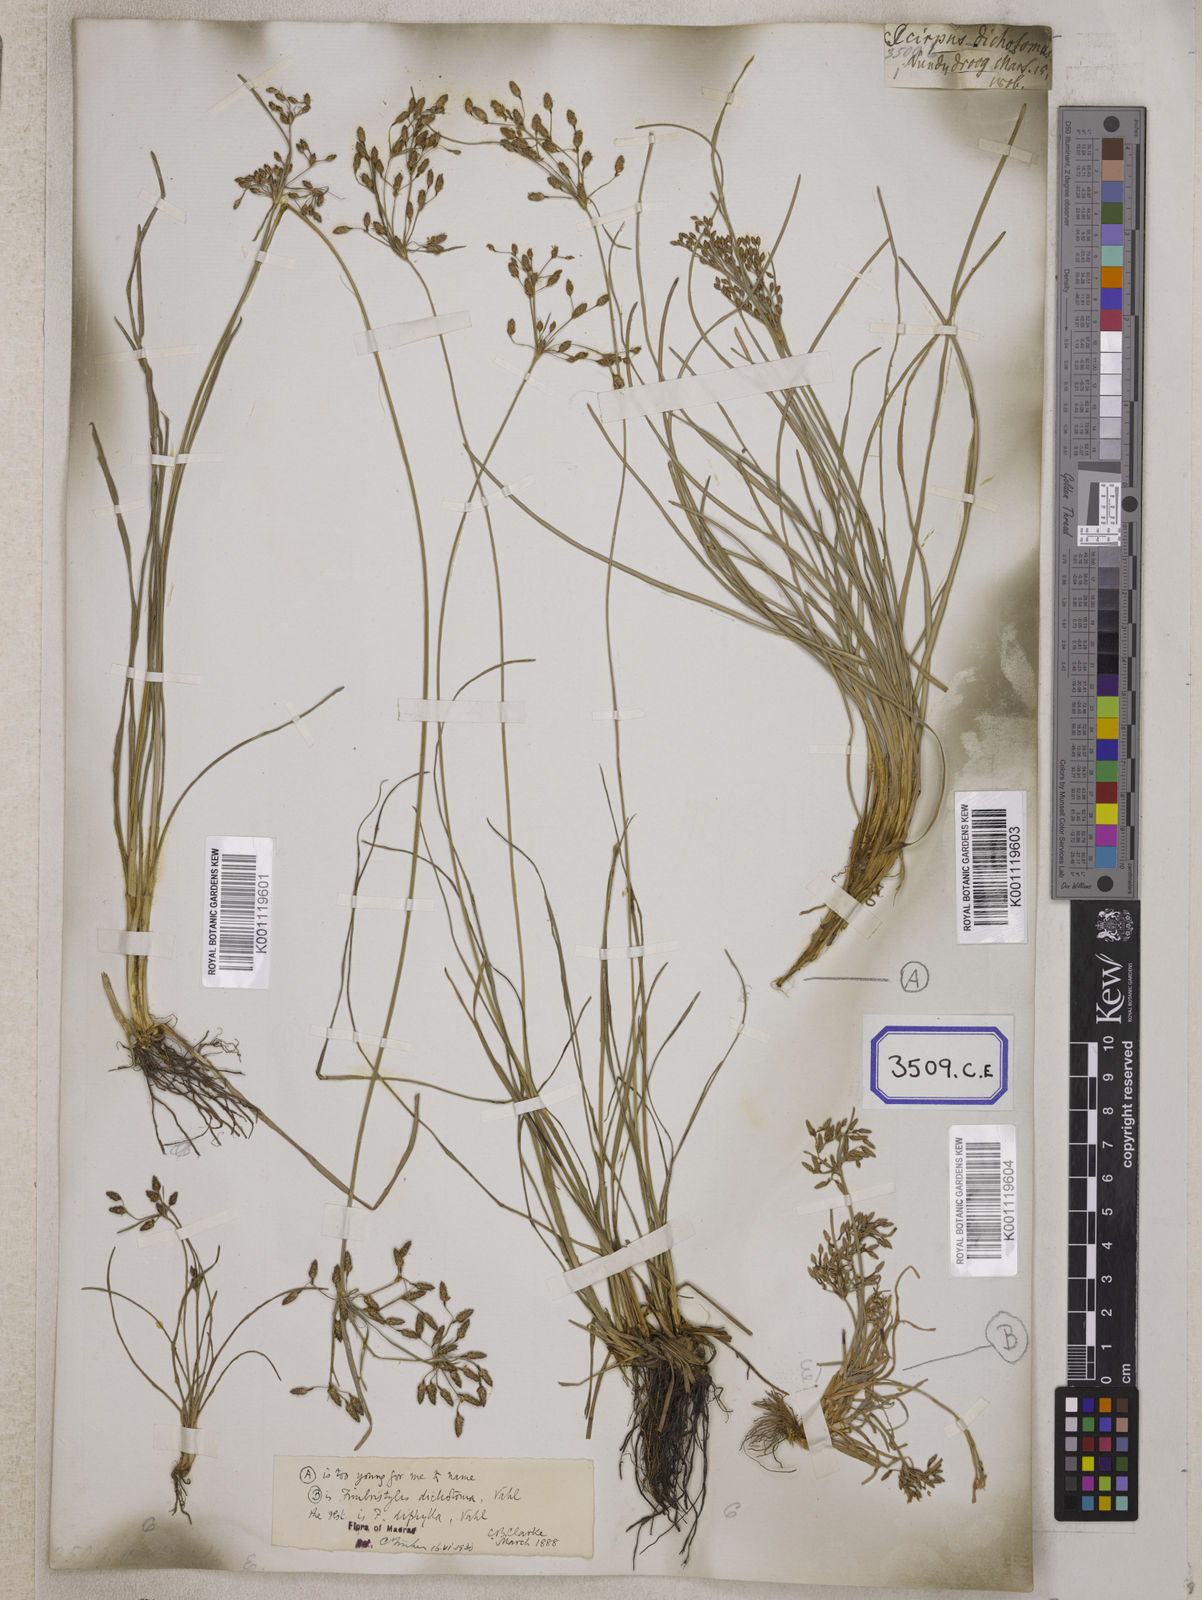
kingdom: Plantae
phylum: Tracheophyta
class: Liliopsida
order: Poales
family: Cyperaceae
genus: Fimbristylis
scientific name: Fimbristylis
